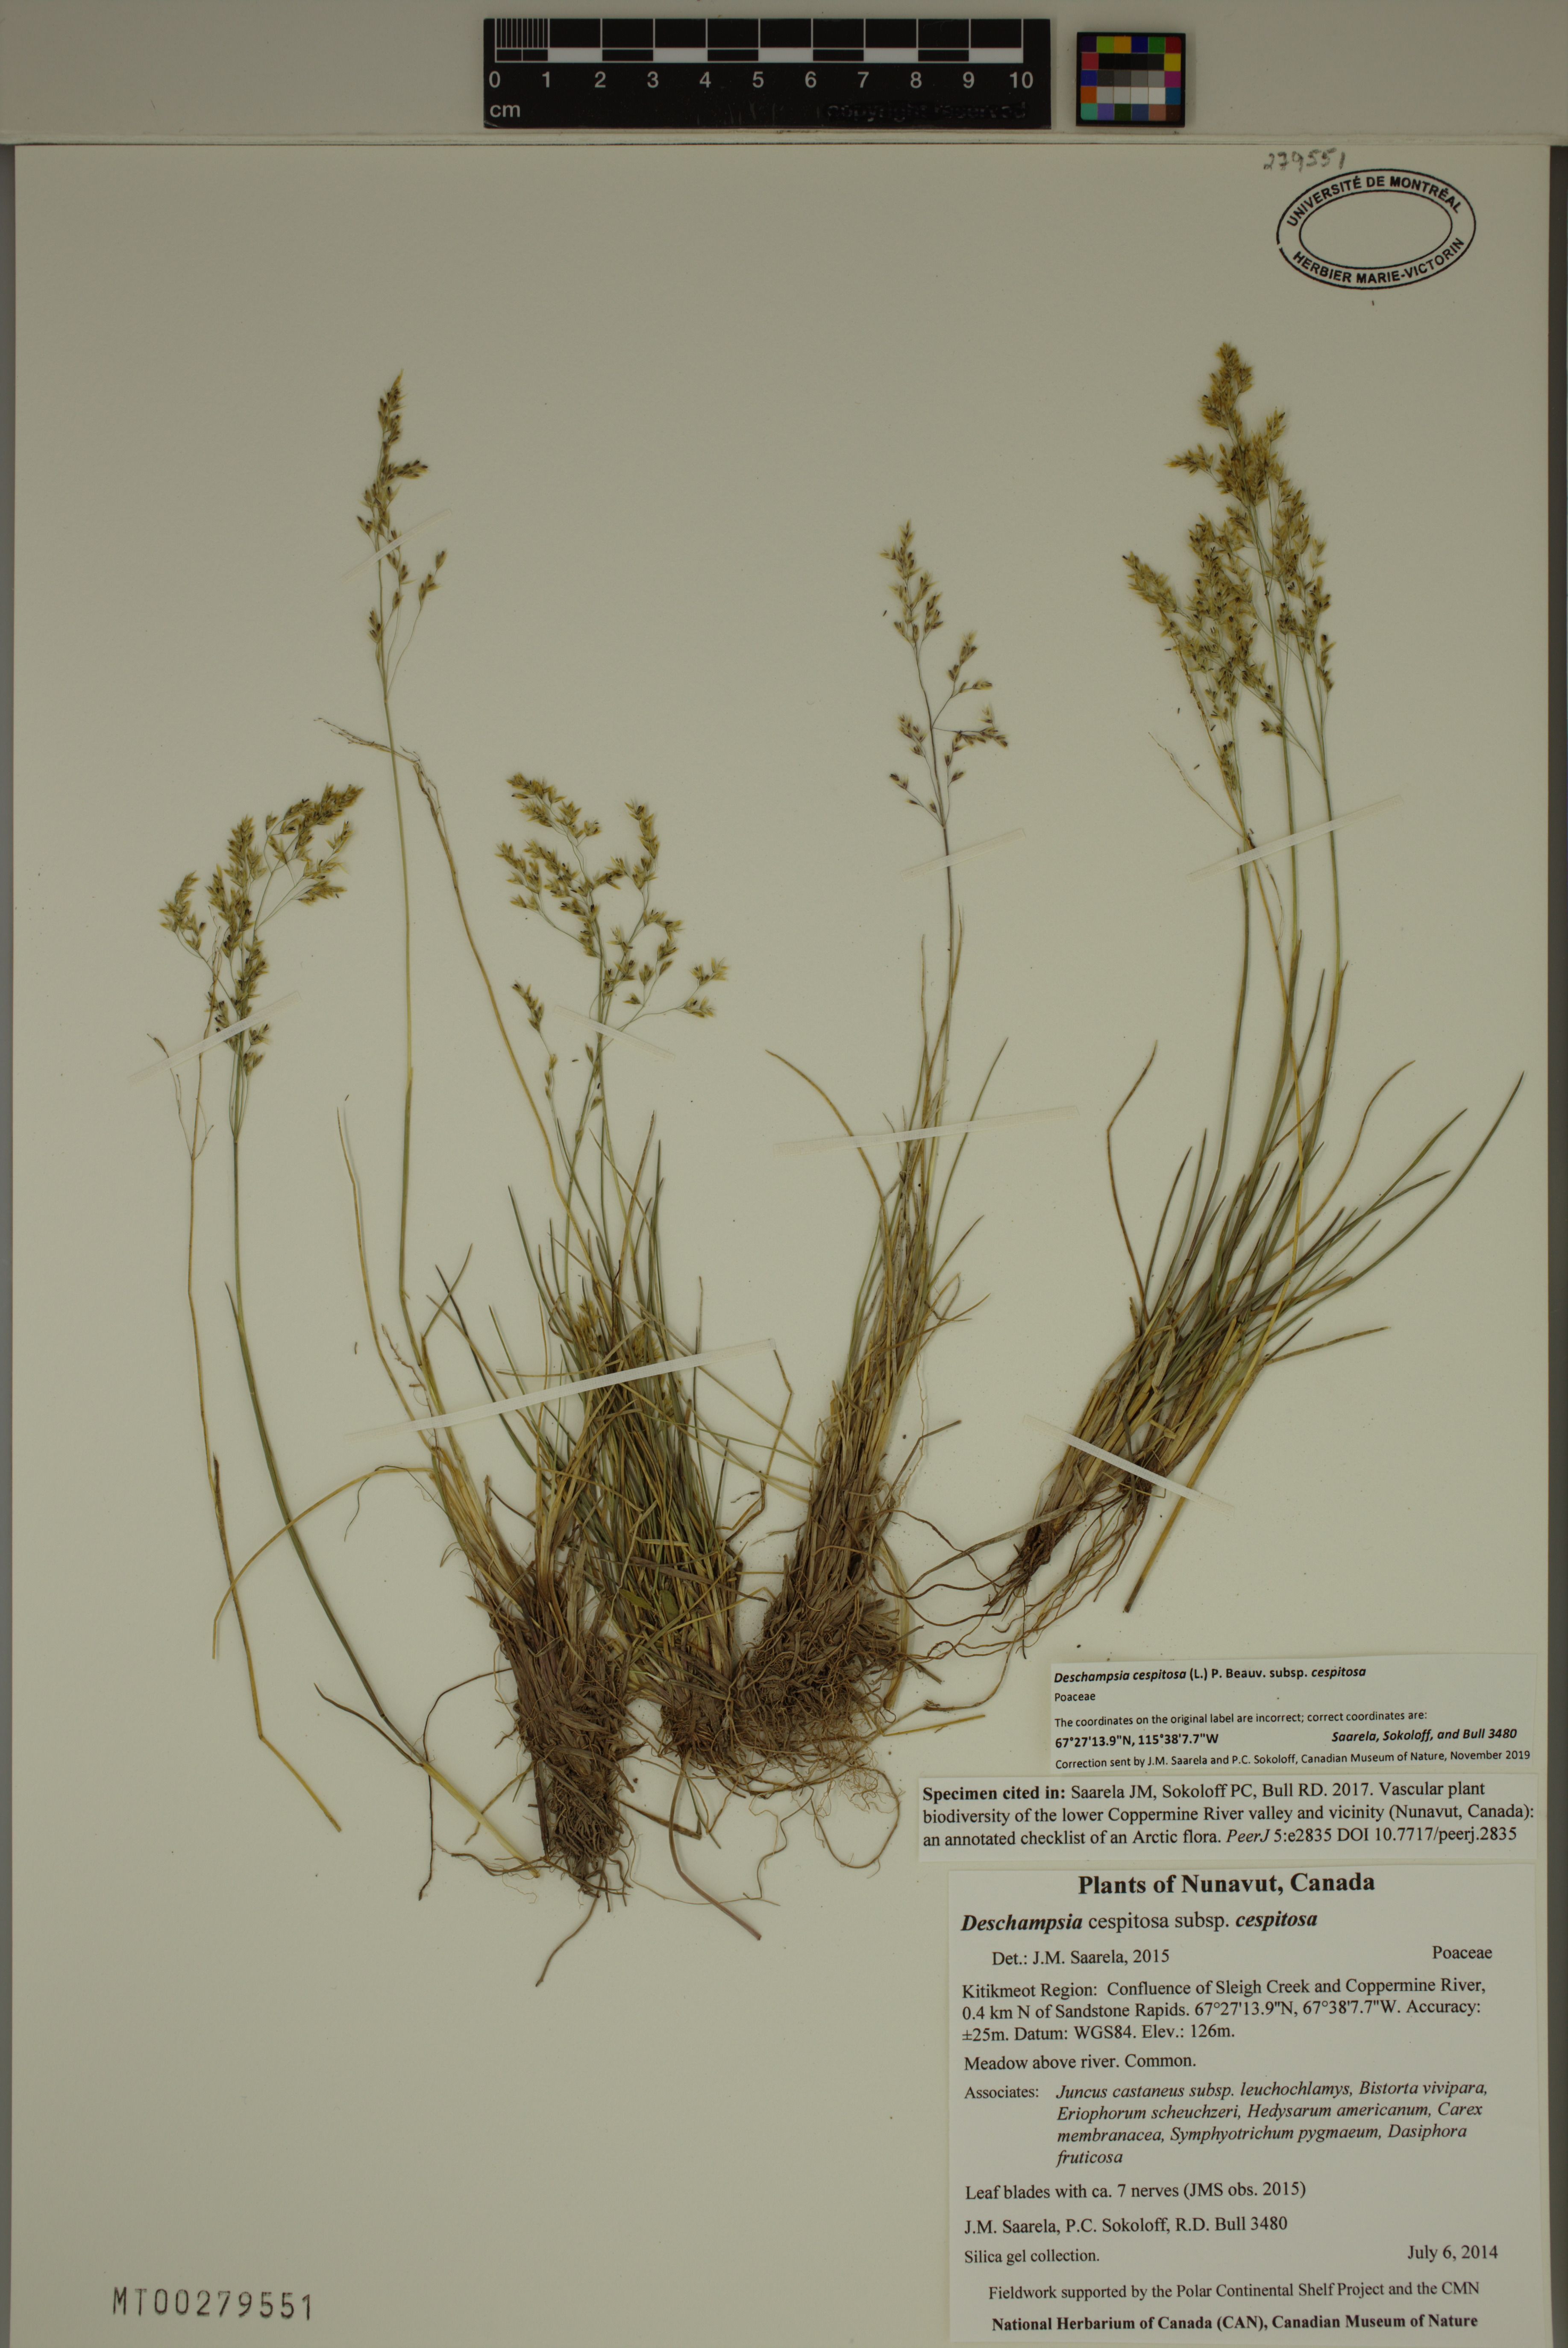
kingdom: Plantae
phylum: Tracheophyta
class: Liliopsida
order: Poales
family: Poaceae
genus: Deschampsia
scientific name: Deschampsia cespitosa
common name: Tufted hair-grass
